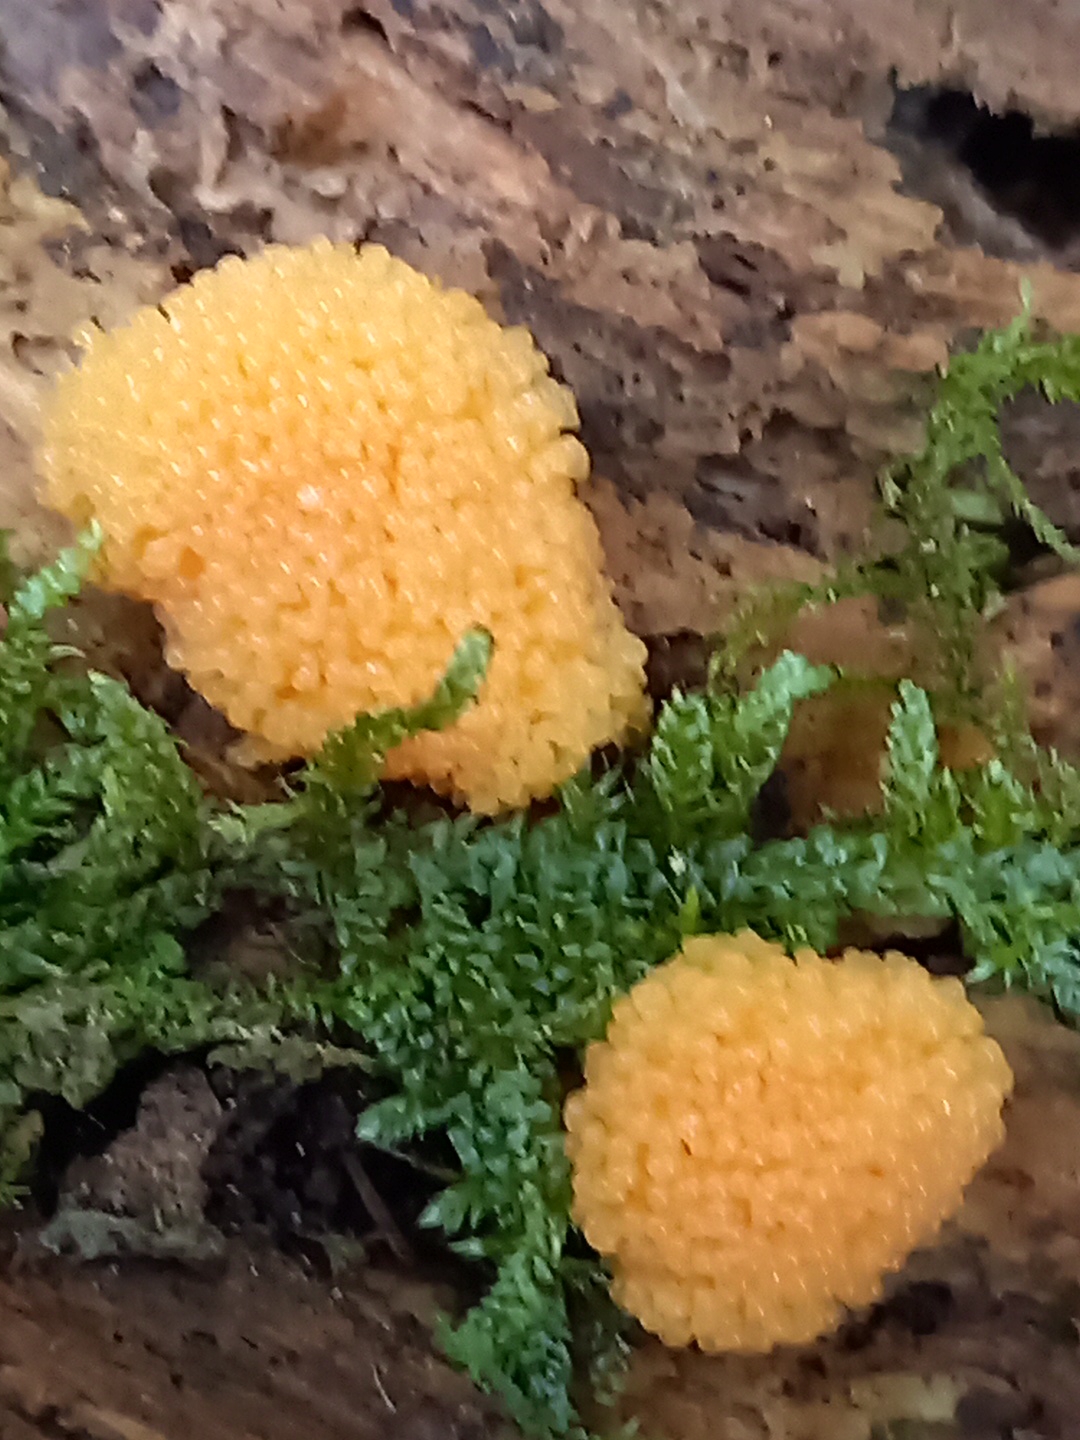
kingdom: Protozoa
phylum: Mycetozoa
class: Myxomycetes
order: Cribrariales
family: Tubiferaceae
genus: Tubifera
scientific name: Tubifera ferruginosa
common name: kanel-støvrør
